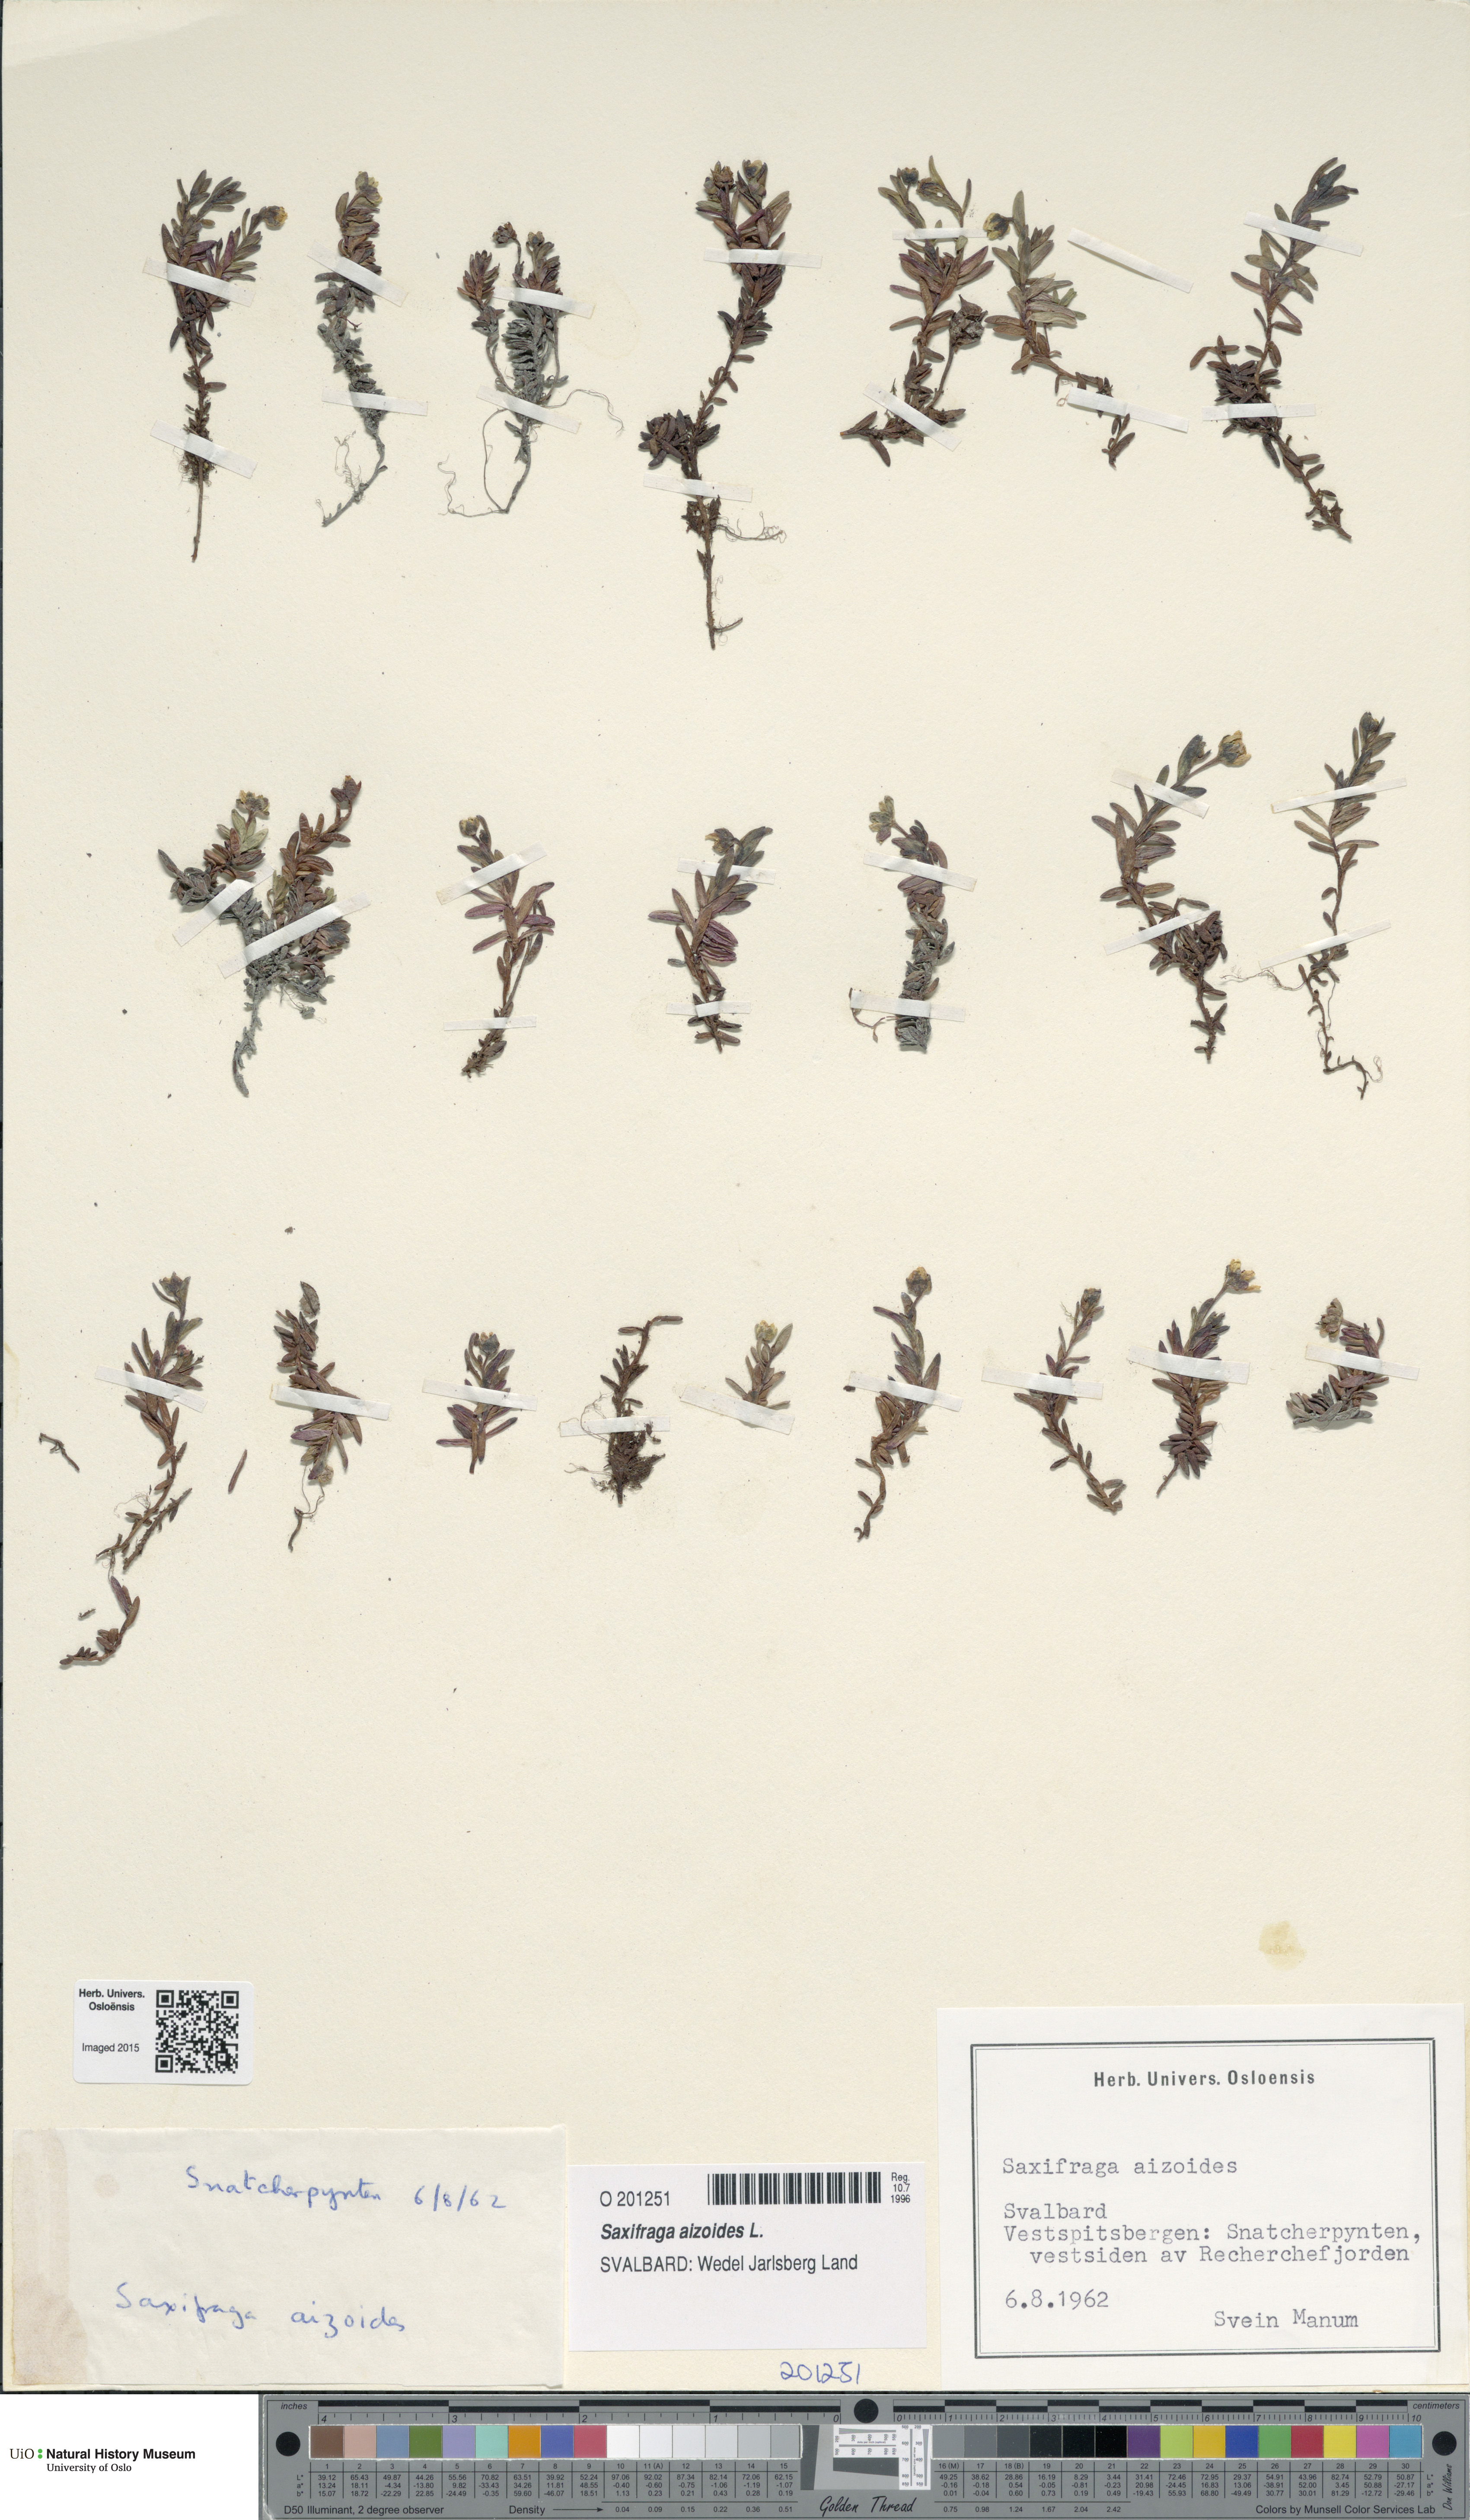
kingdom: Plantae
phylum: Tracheophyta
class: Magnoliopsida
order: Saxifragales
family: Saxifragaceae
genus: Saxifraga
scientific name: Saxifraga aizoides
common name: Yellow mountain saxifrage
